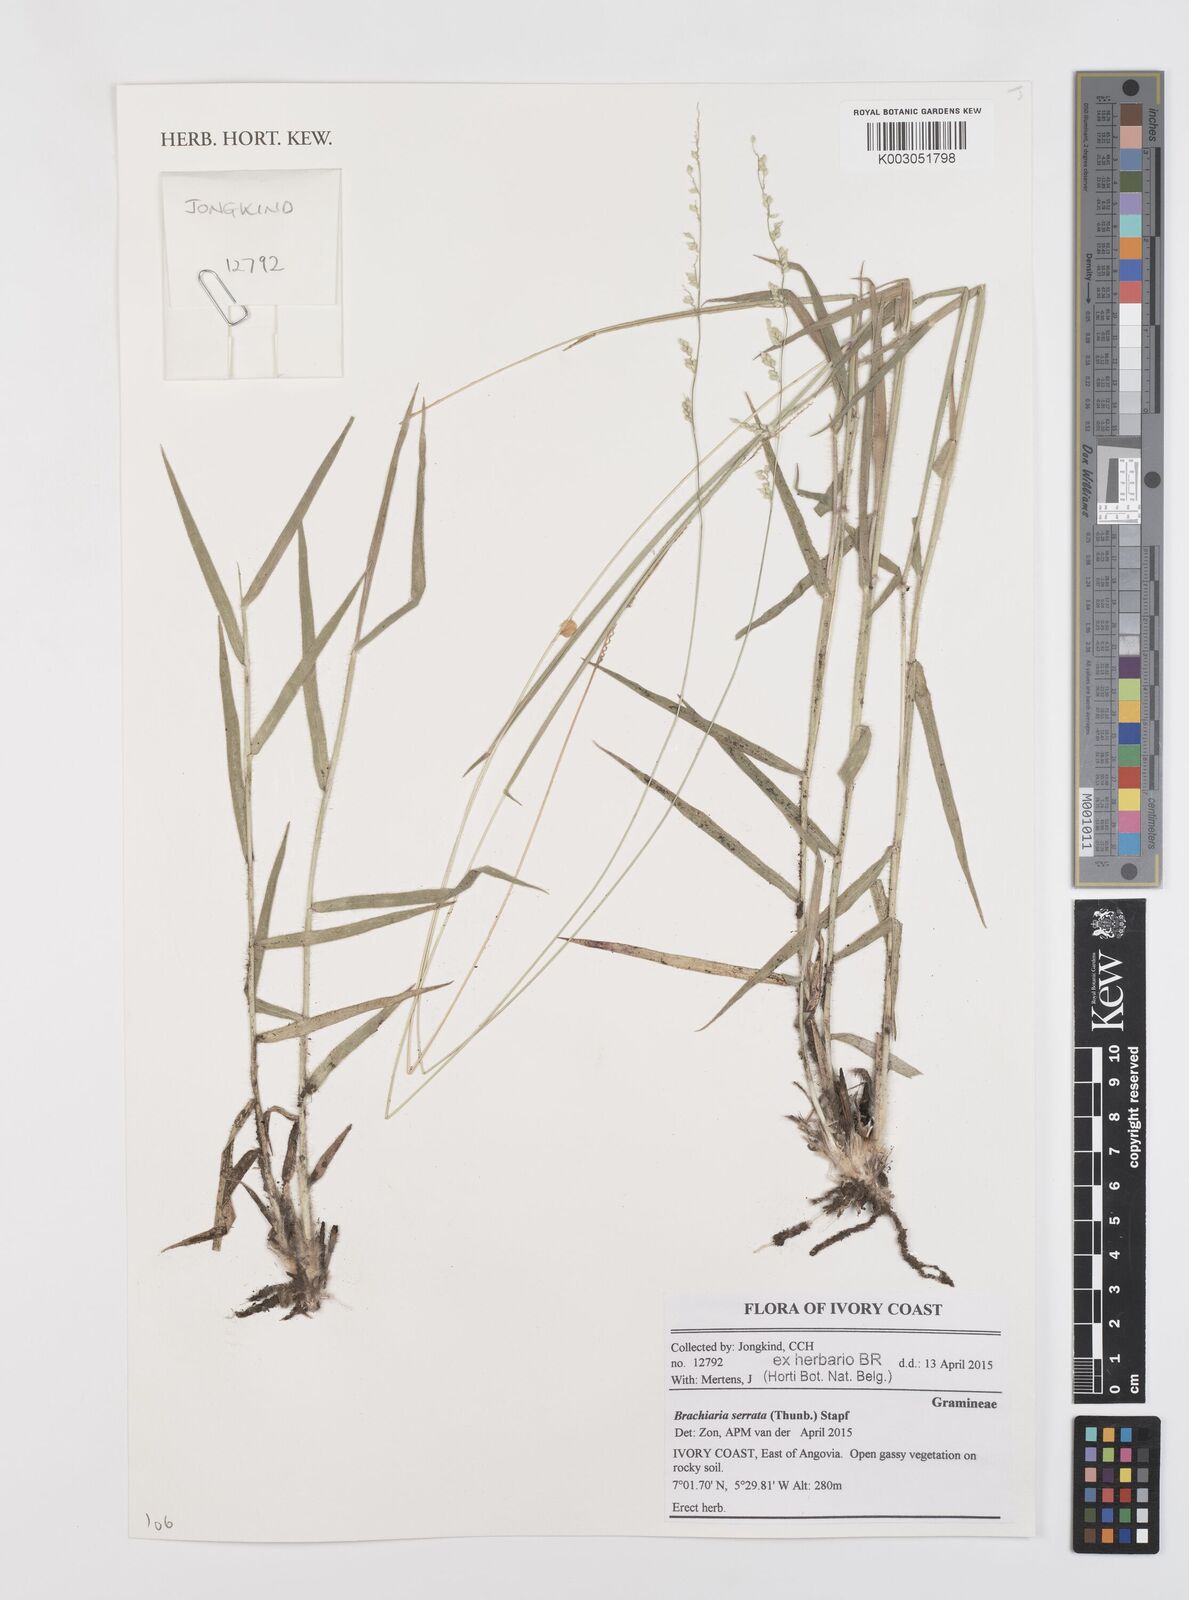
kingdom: Plantae
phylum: Tracheophyta
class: Liliopsida
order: Poales
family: Poaceae
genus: Urochloa
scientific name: Urochloa serrata
